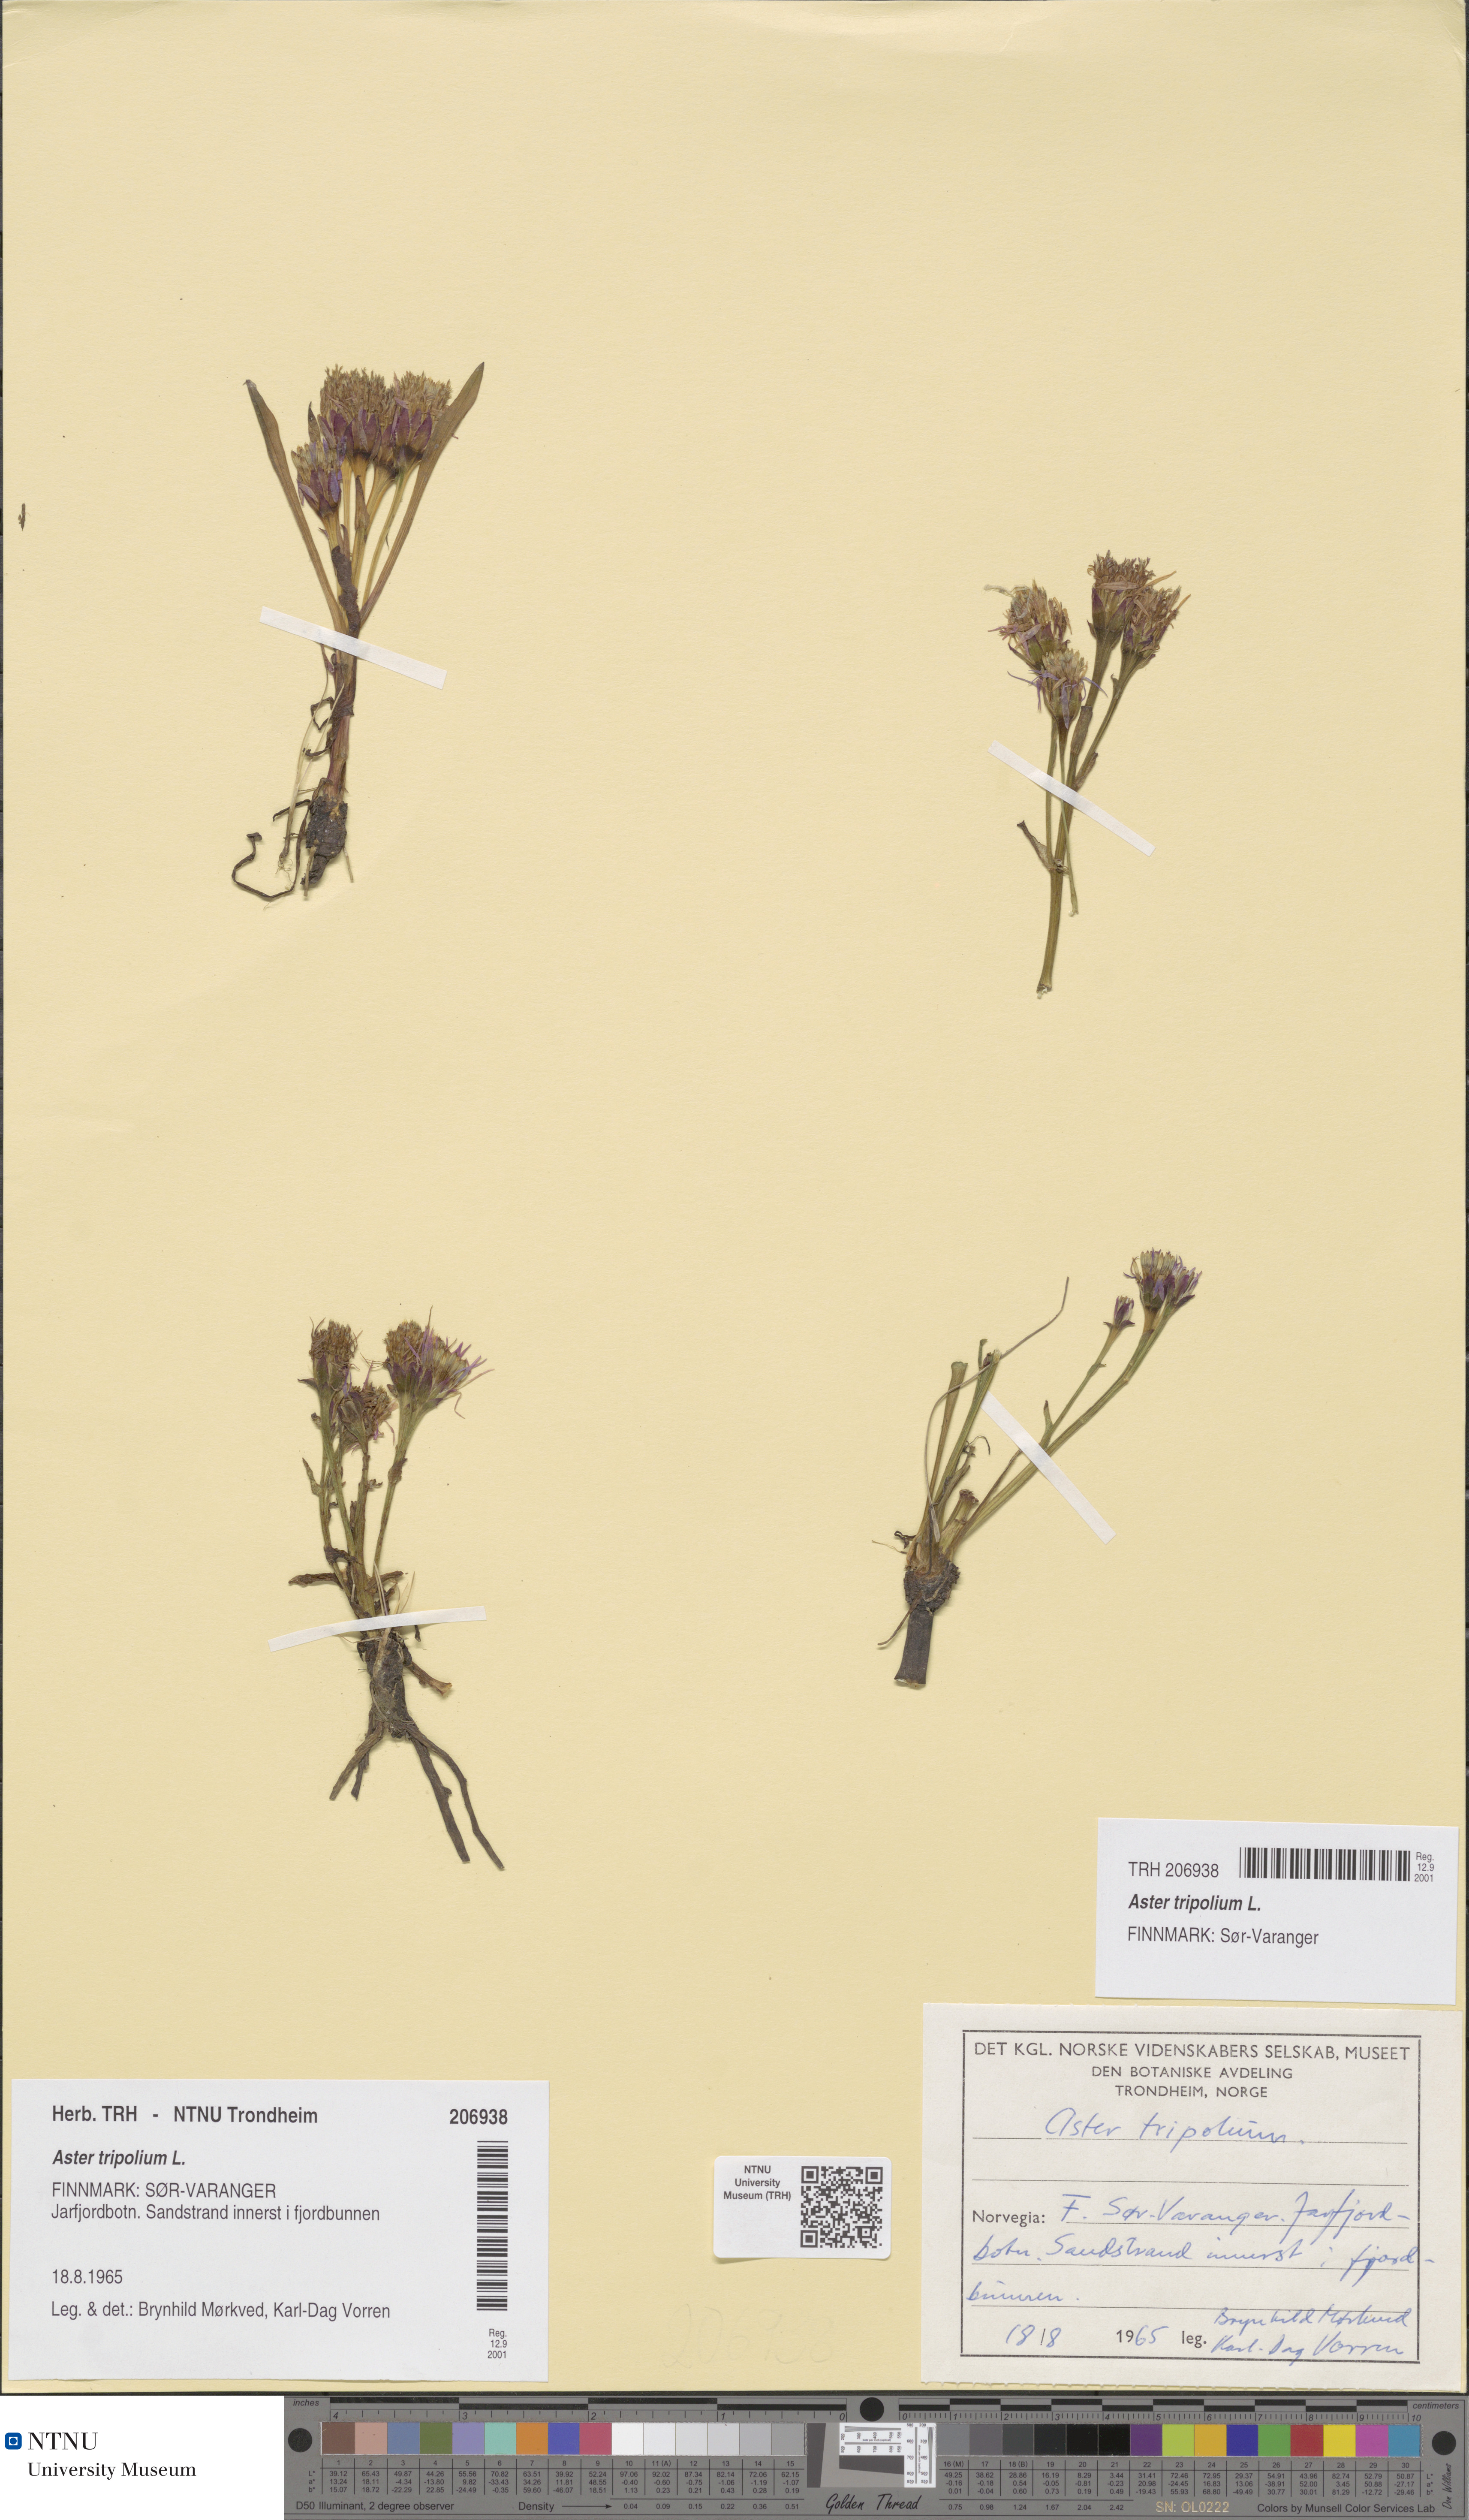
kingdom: Plantae
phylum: Tracheophyta
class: Magnoliopsida
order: Asterales
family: Asteraceae
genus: Tripolium
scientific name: Tripolium pannonicum
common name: Sea aster
